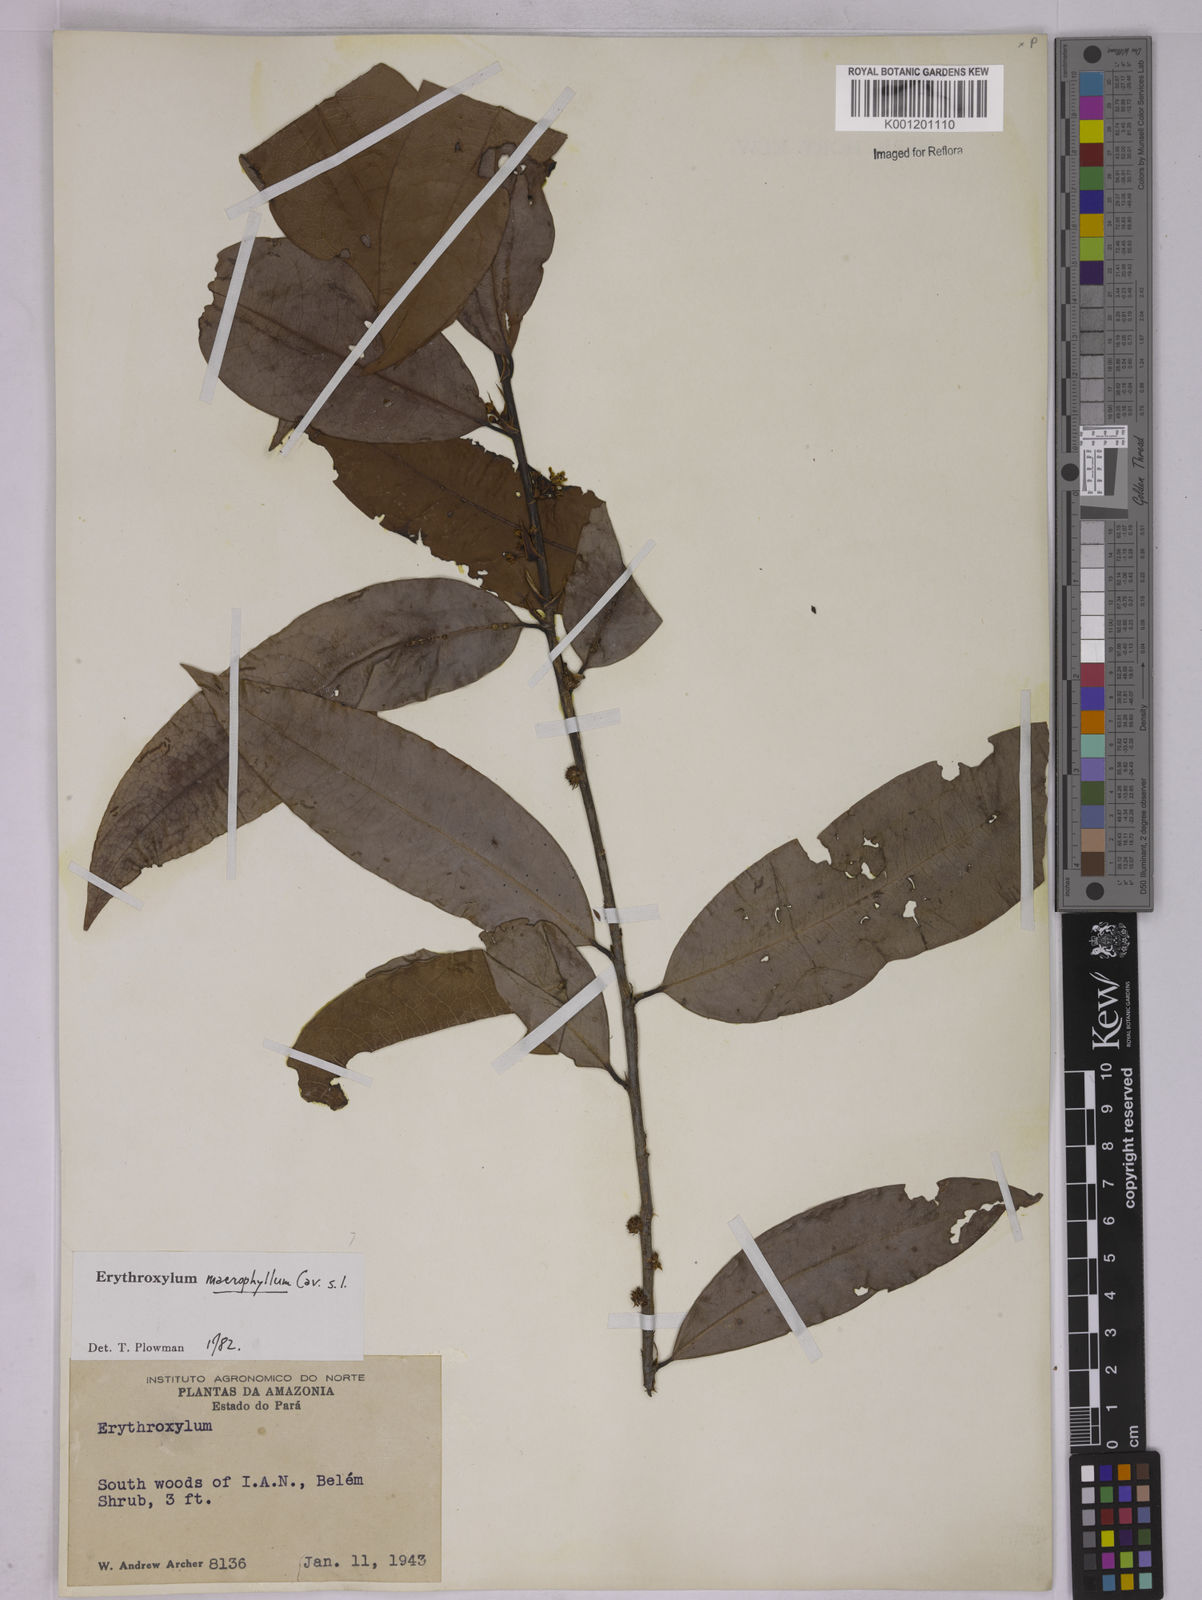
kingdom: Plantae
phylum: Tracheophyta
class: Magnoliopsida
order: Malpighiales
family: Erythroxylaceae
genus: Erythroxylum
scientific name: Erythroxylum macrophyllum
